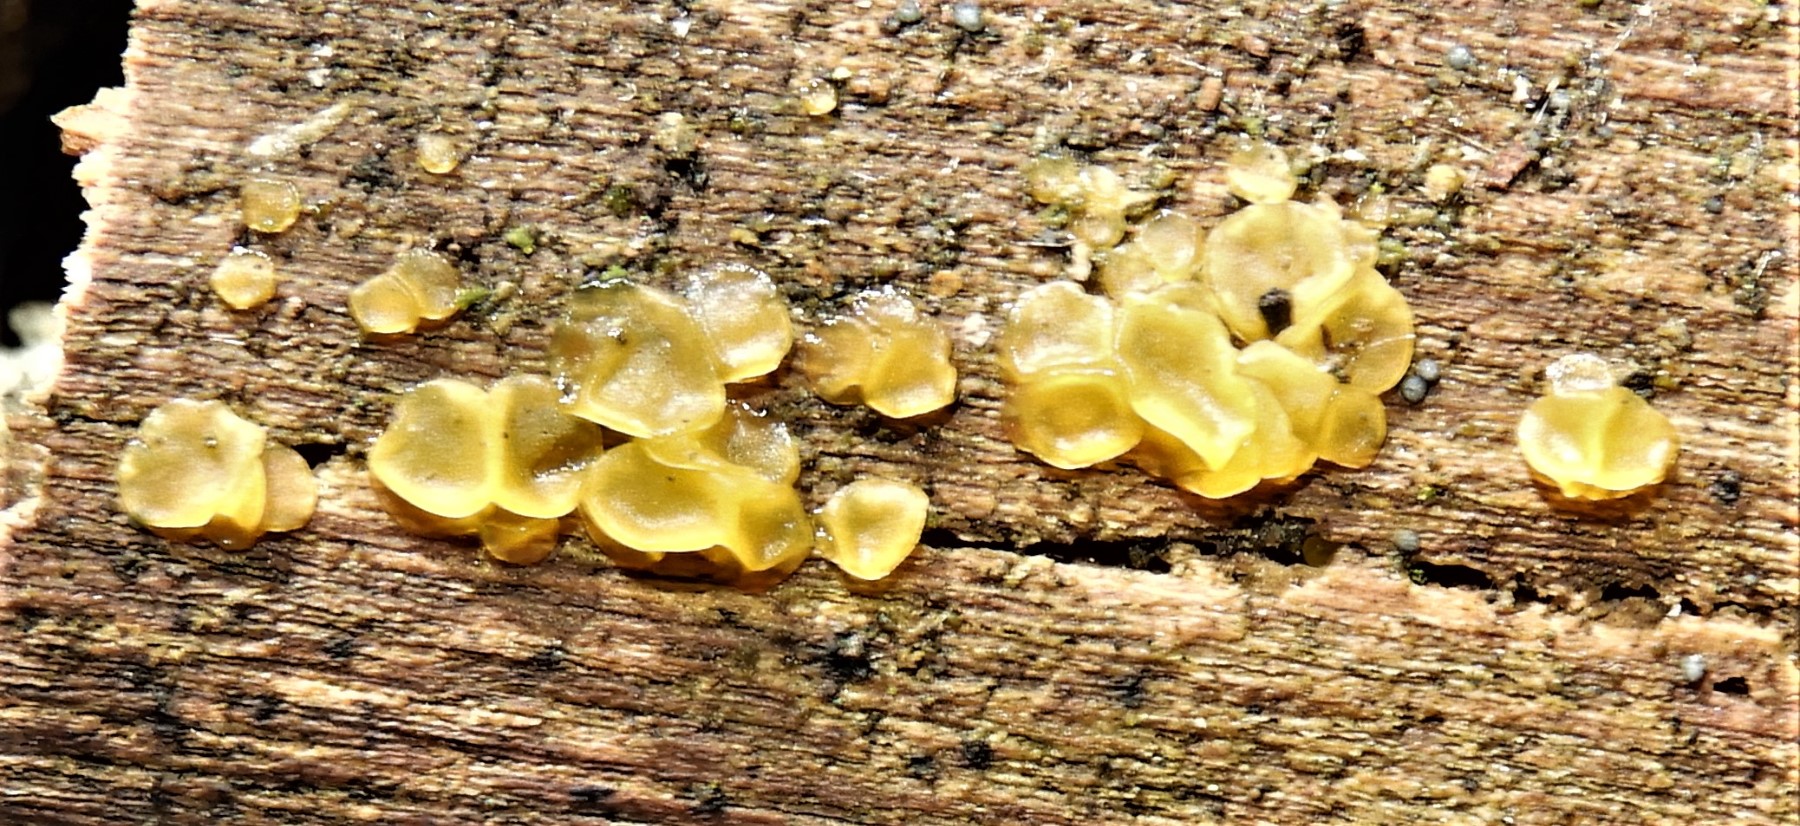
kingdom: Fungi
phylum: Ascomycota
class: Orbiliomycetes
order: Orbiliales
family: Orbiliaceae
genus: Orbilia
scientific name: Orbilia
